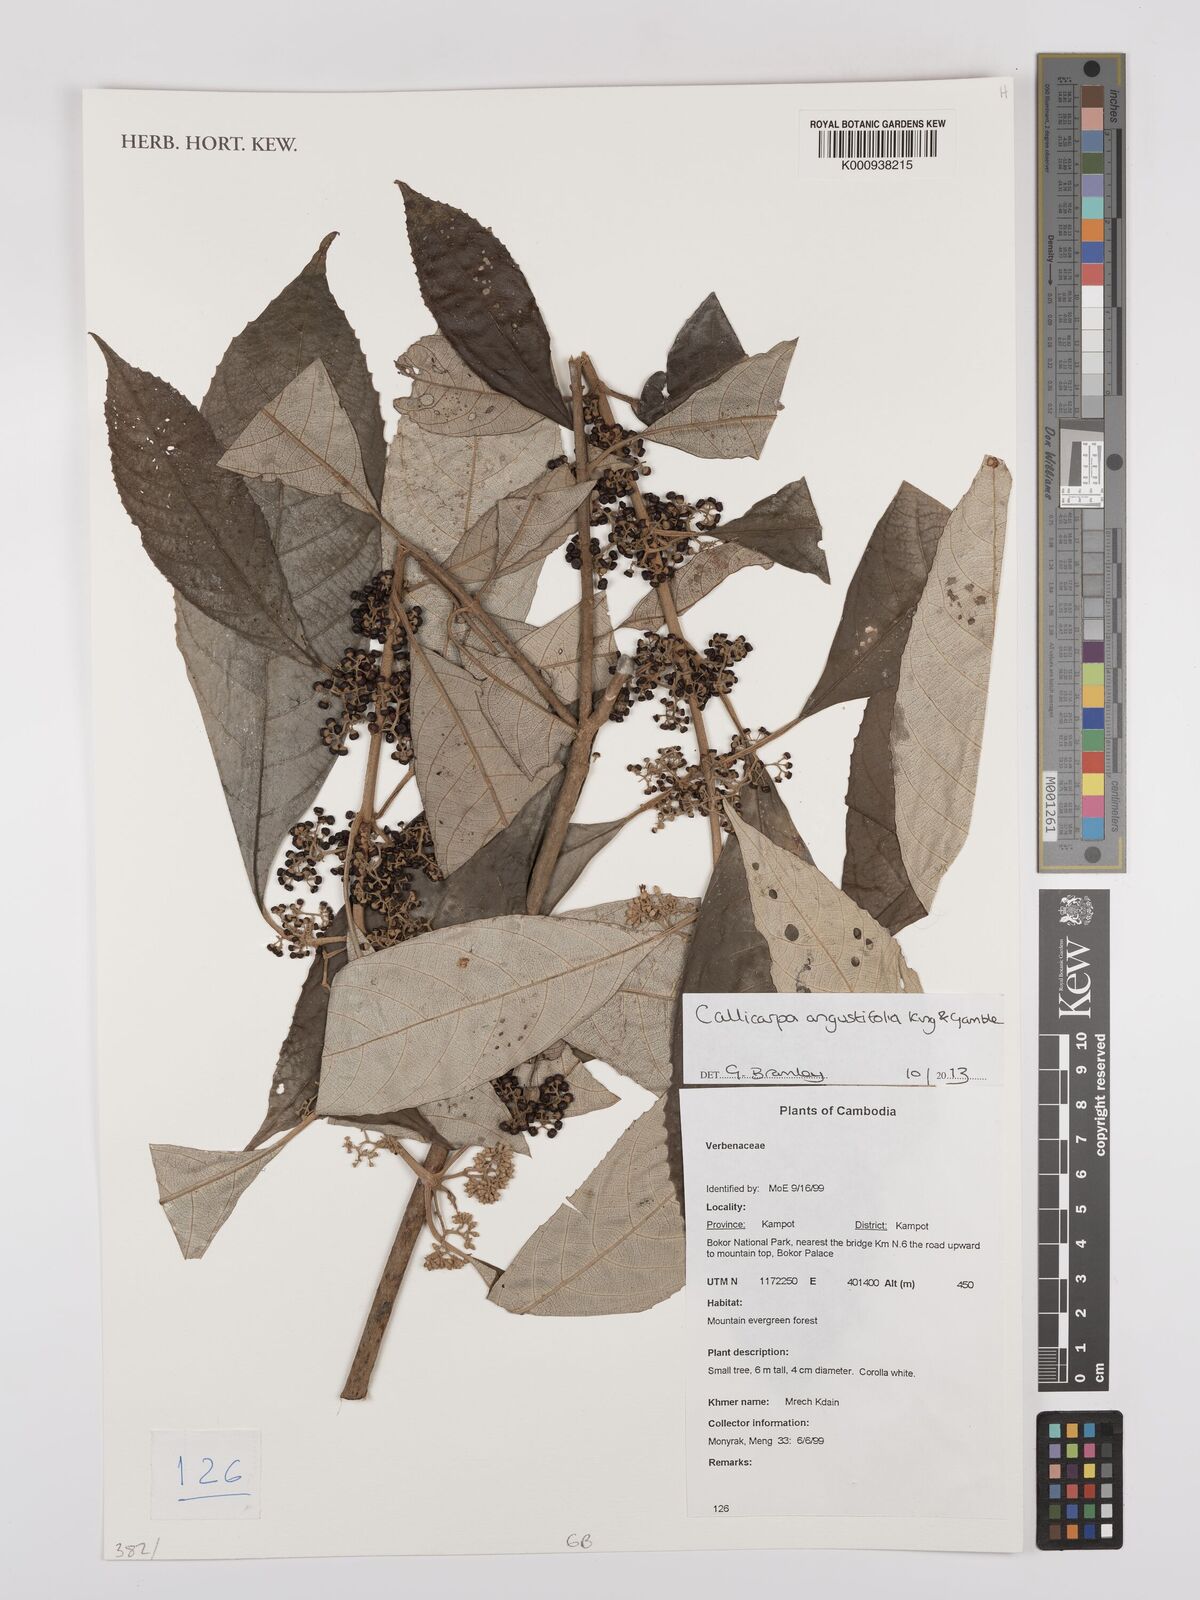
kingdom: Plantae
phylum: Tracheophyta
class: Magnoliopsida
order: Lamiales
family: Lamiaceae
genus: Callicarpa
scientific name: Callicarpa angustifolia
